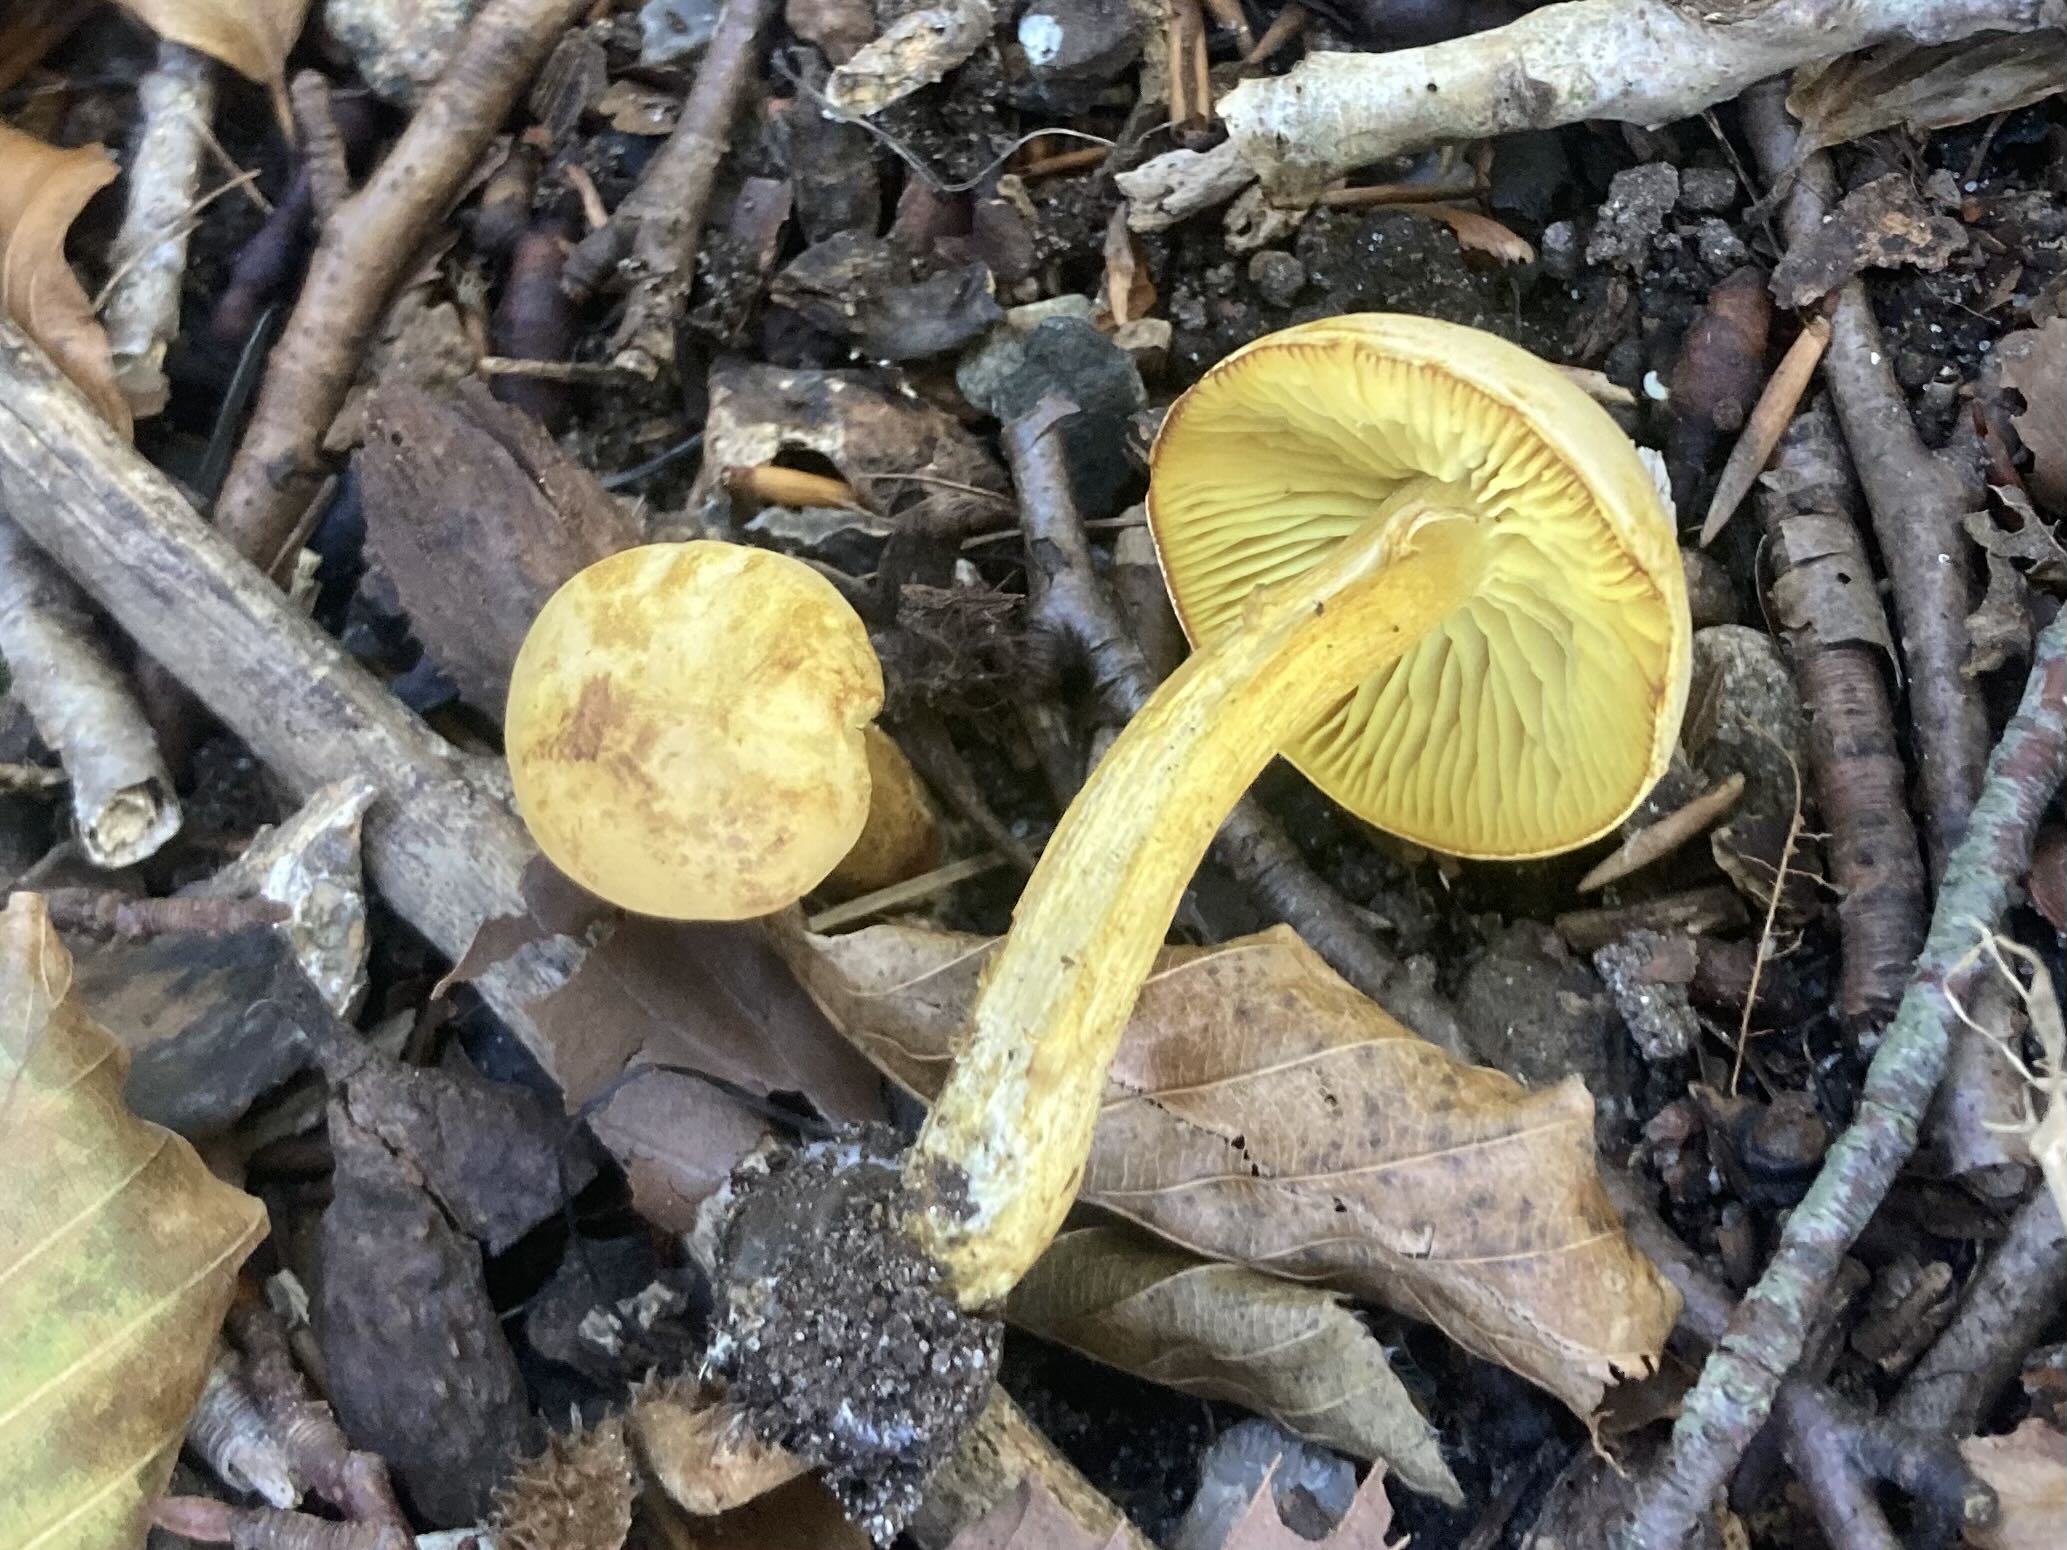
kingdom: Fungi
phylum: Basidiomycota
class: Agaricomycetes
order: Agaricales
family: Tricholomataceae
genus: Tricholoma
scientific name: Tricholoma sulphureum
